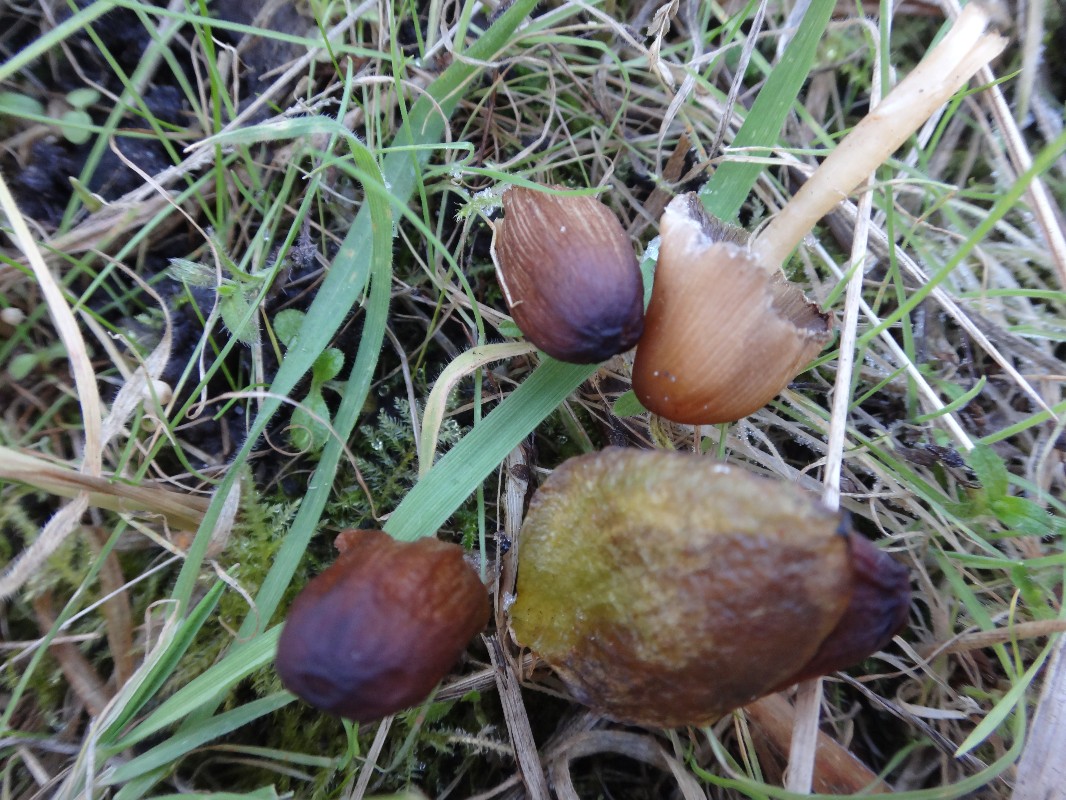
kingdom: Fungi
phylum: Basidiomycota
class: Agaricomycetes
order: Agaricales
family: Psathyrellaceae
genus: Coprinellus
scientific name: Coprinellus micaceus
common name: glimmer-blækhat
